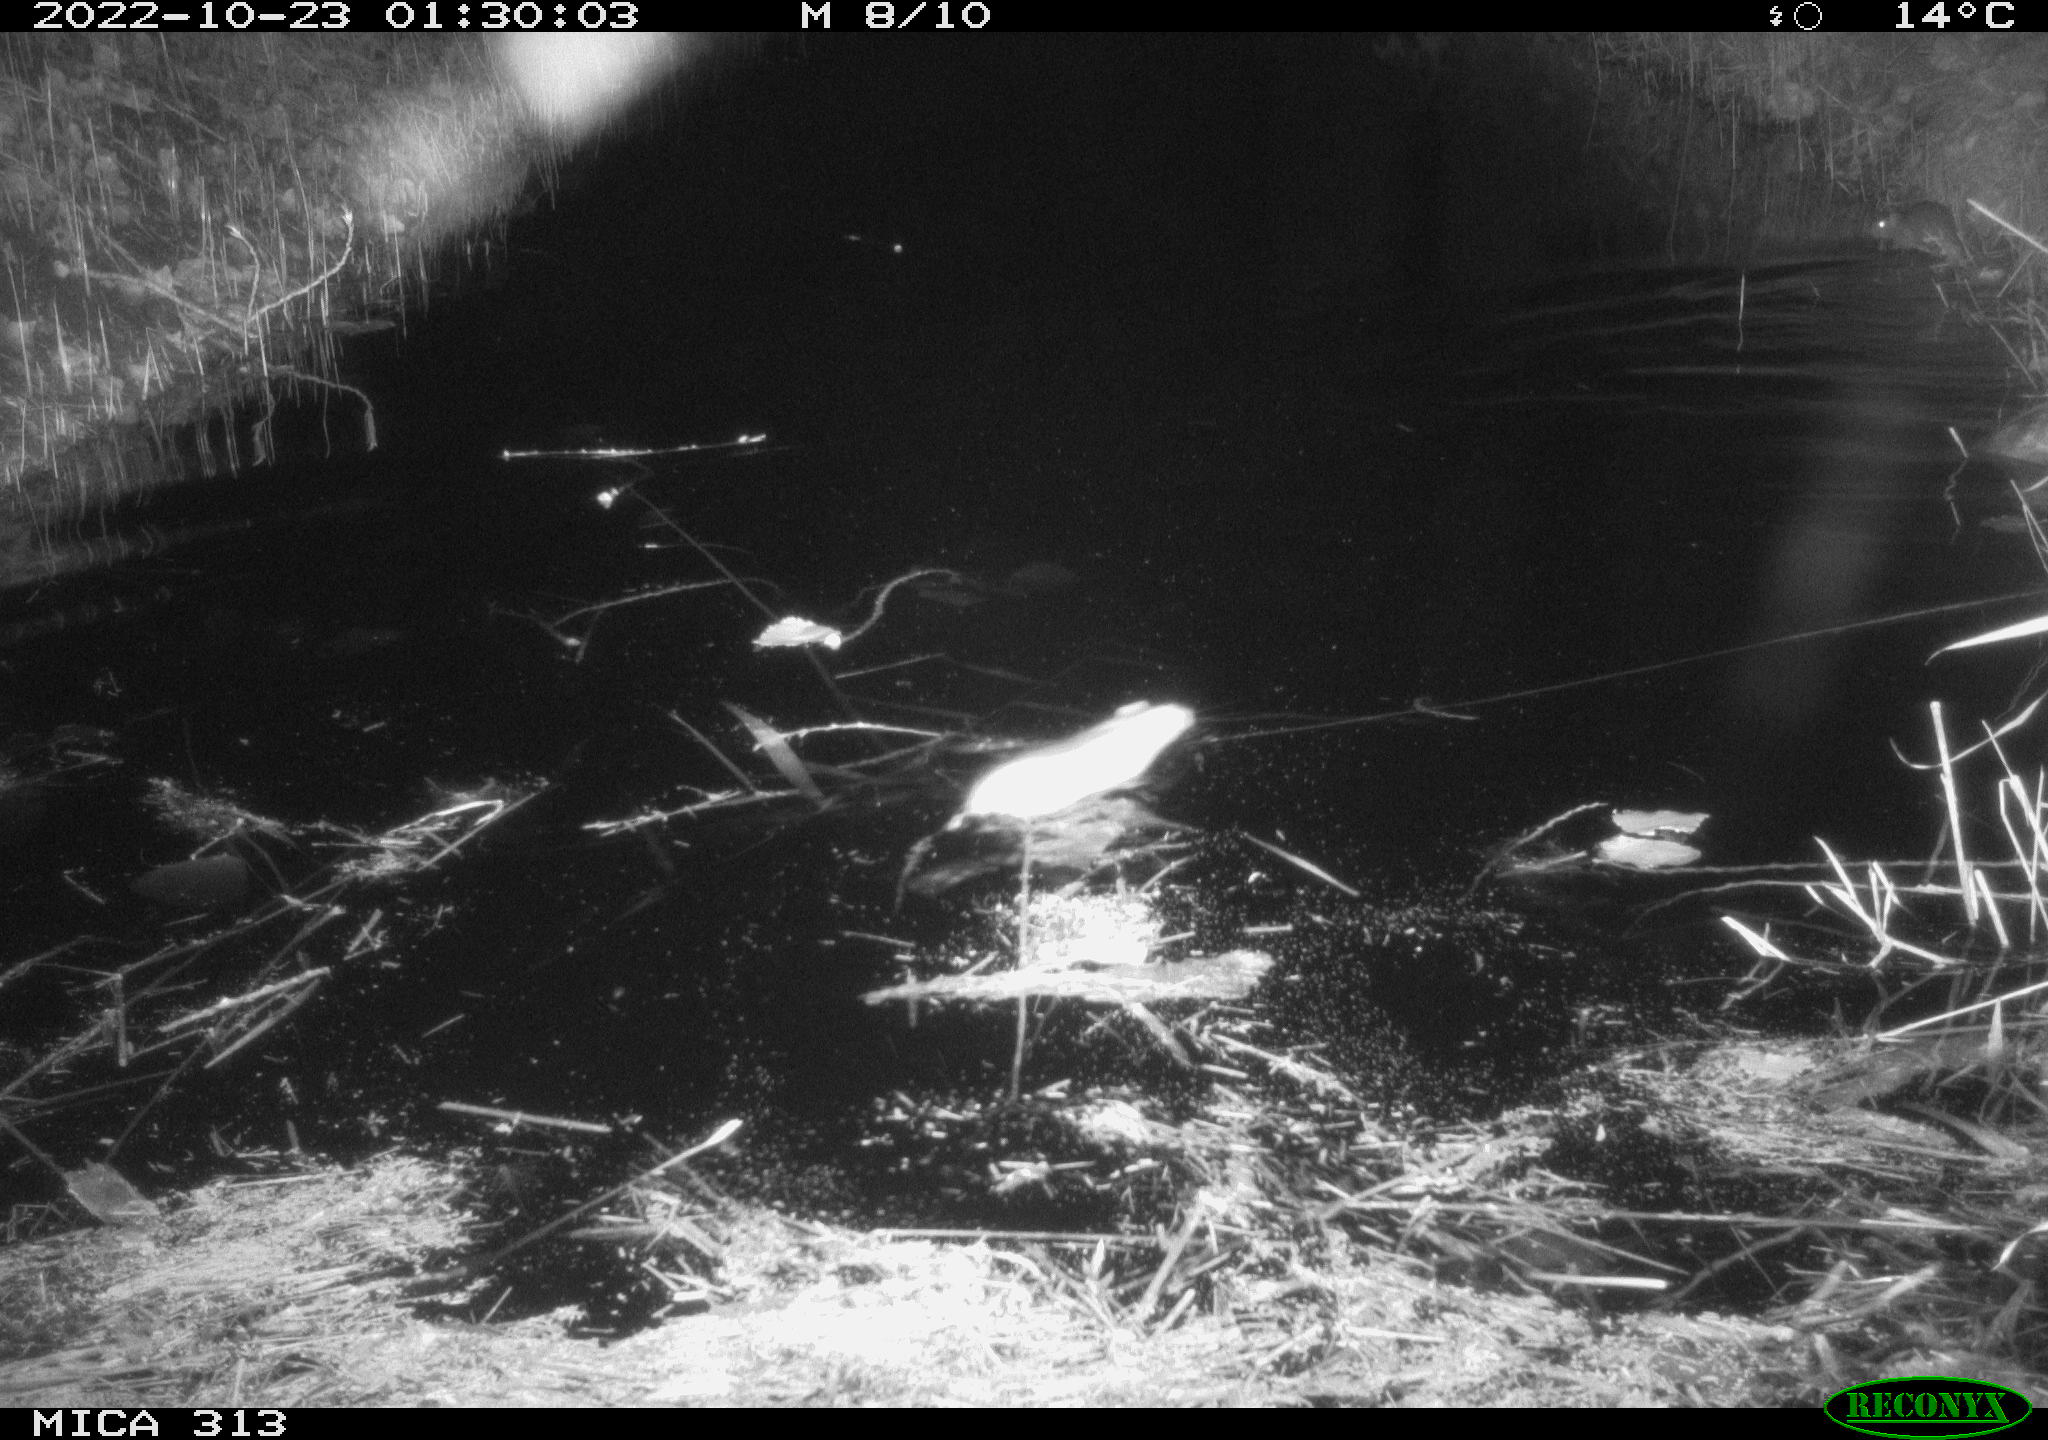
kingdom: Animalia
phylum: Chordata
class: Mammalia
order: Rodentia
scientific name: Rodentia
